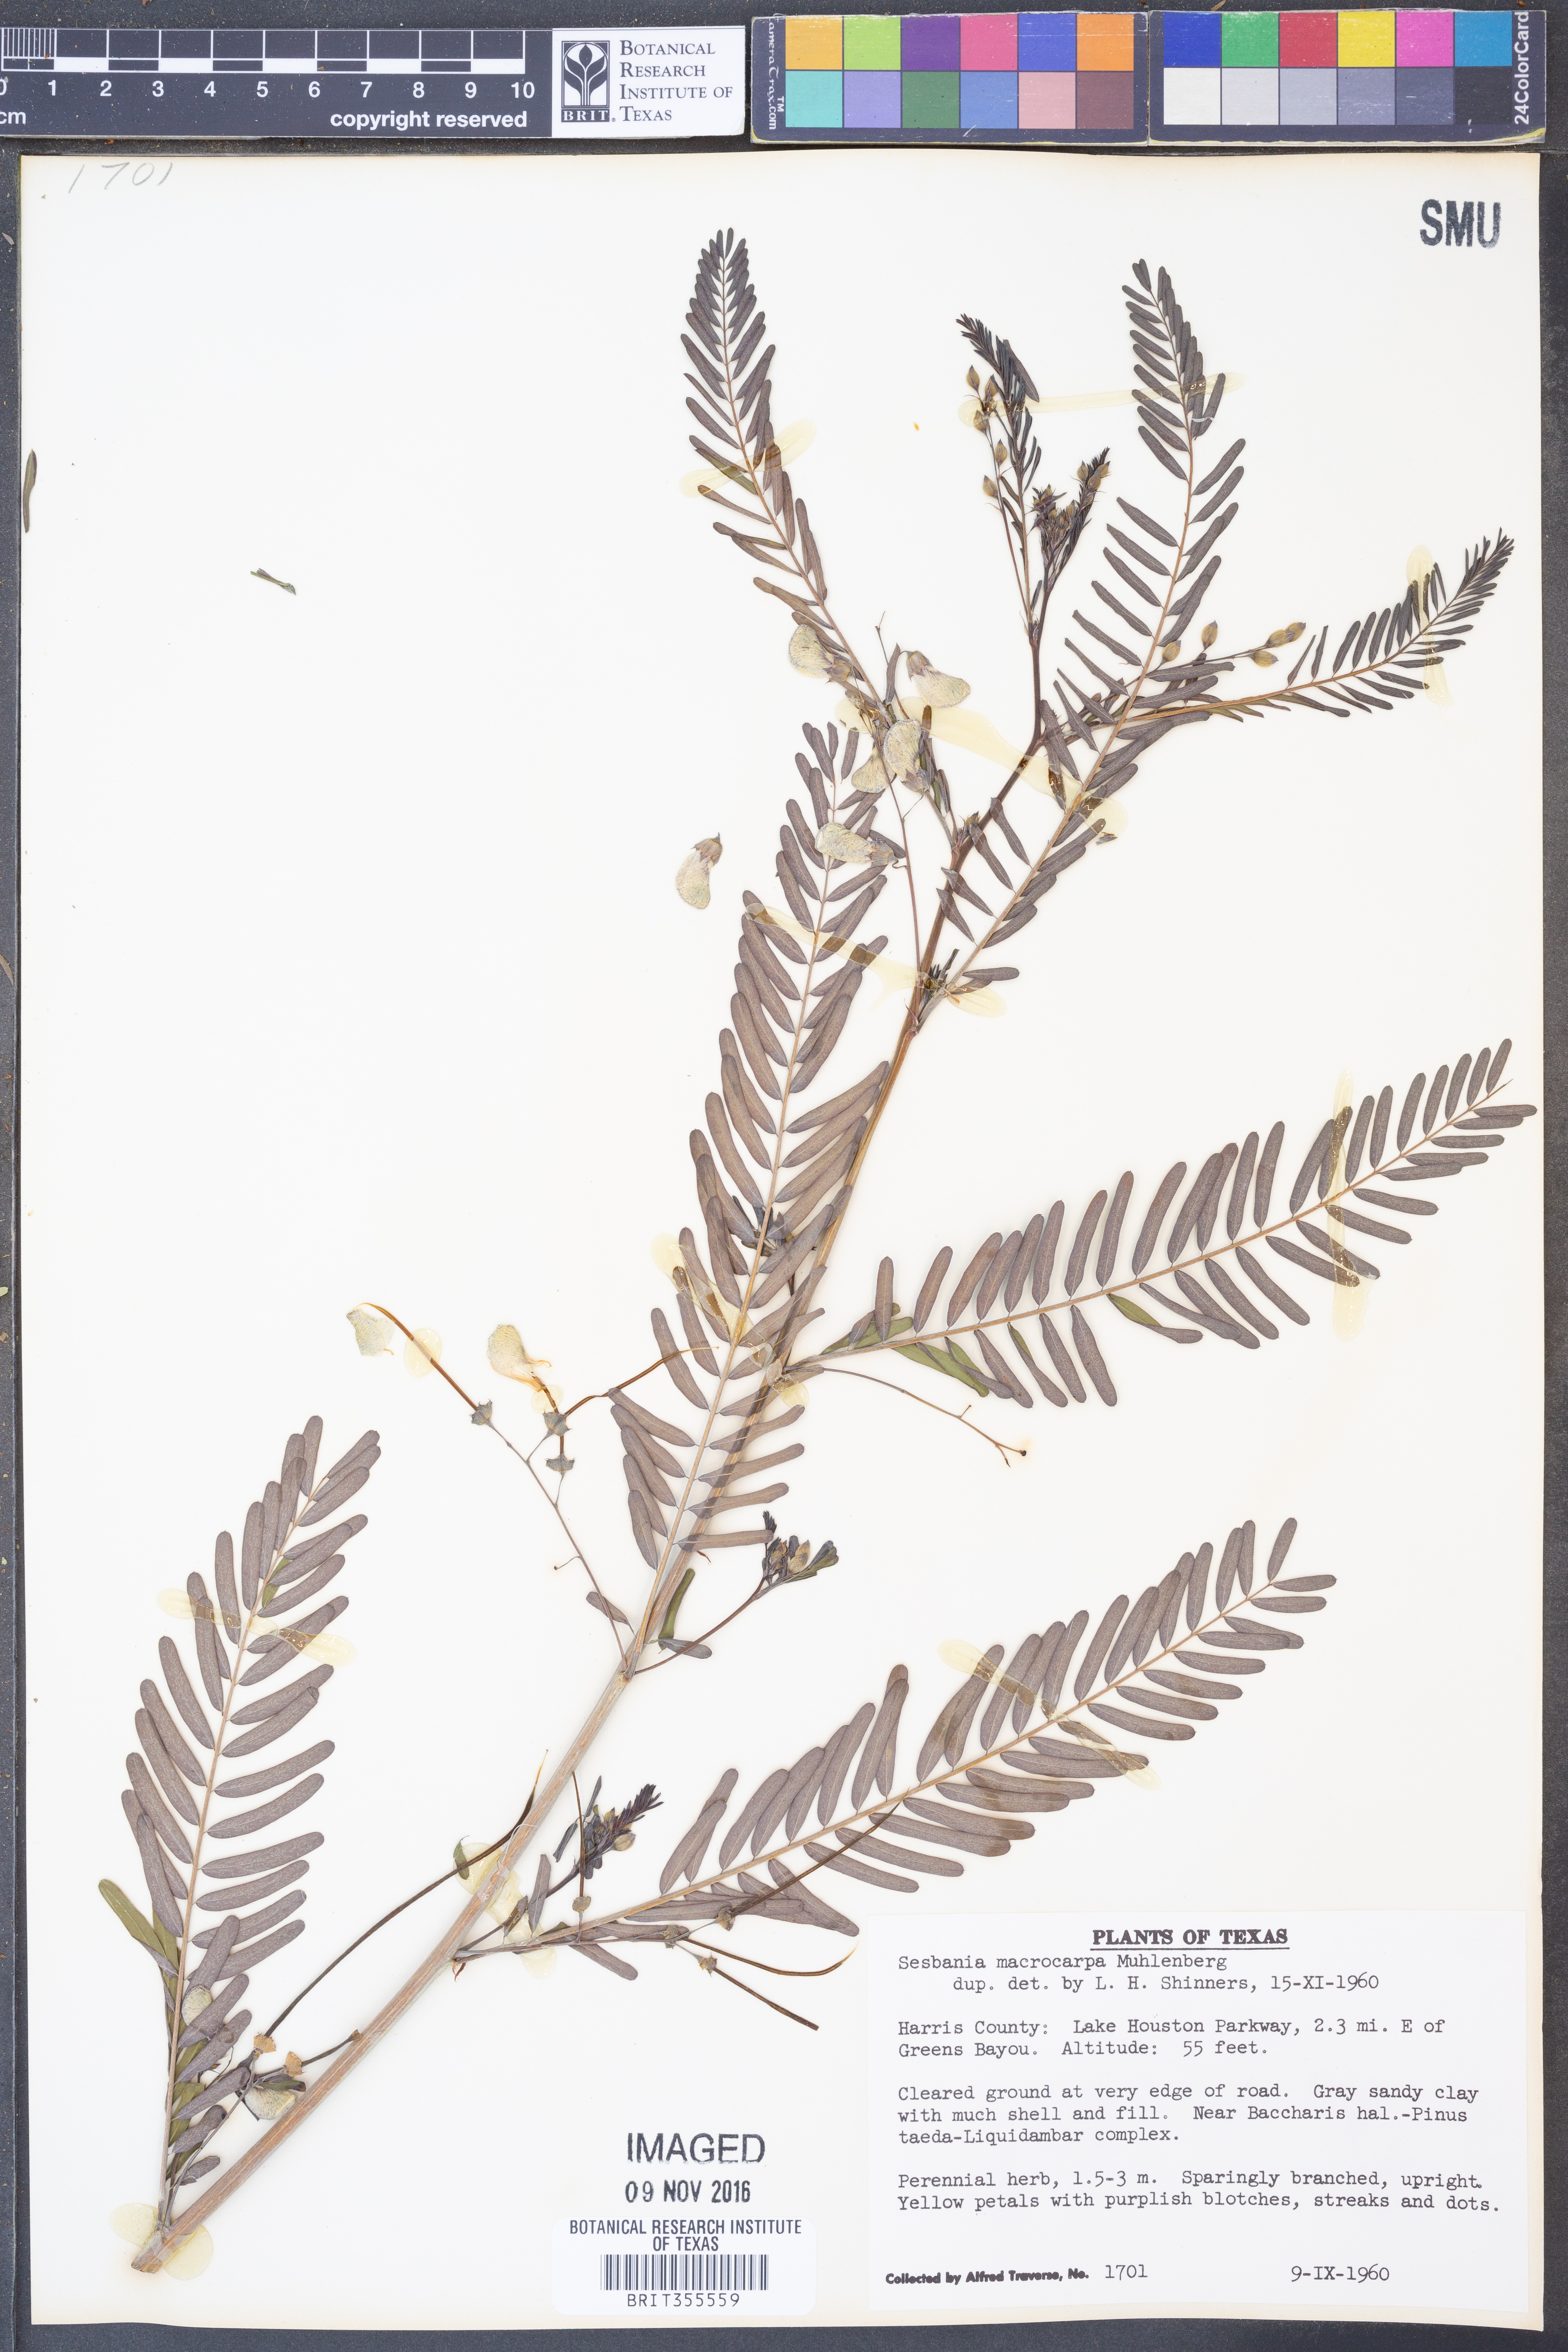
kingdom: Plantae
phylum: Tracheophyta
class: Magnoliopsida
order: Fabales
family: Fabaceae
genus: Sesbania
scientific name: Sesbania vesicaria
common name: Bagpod
